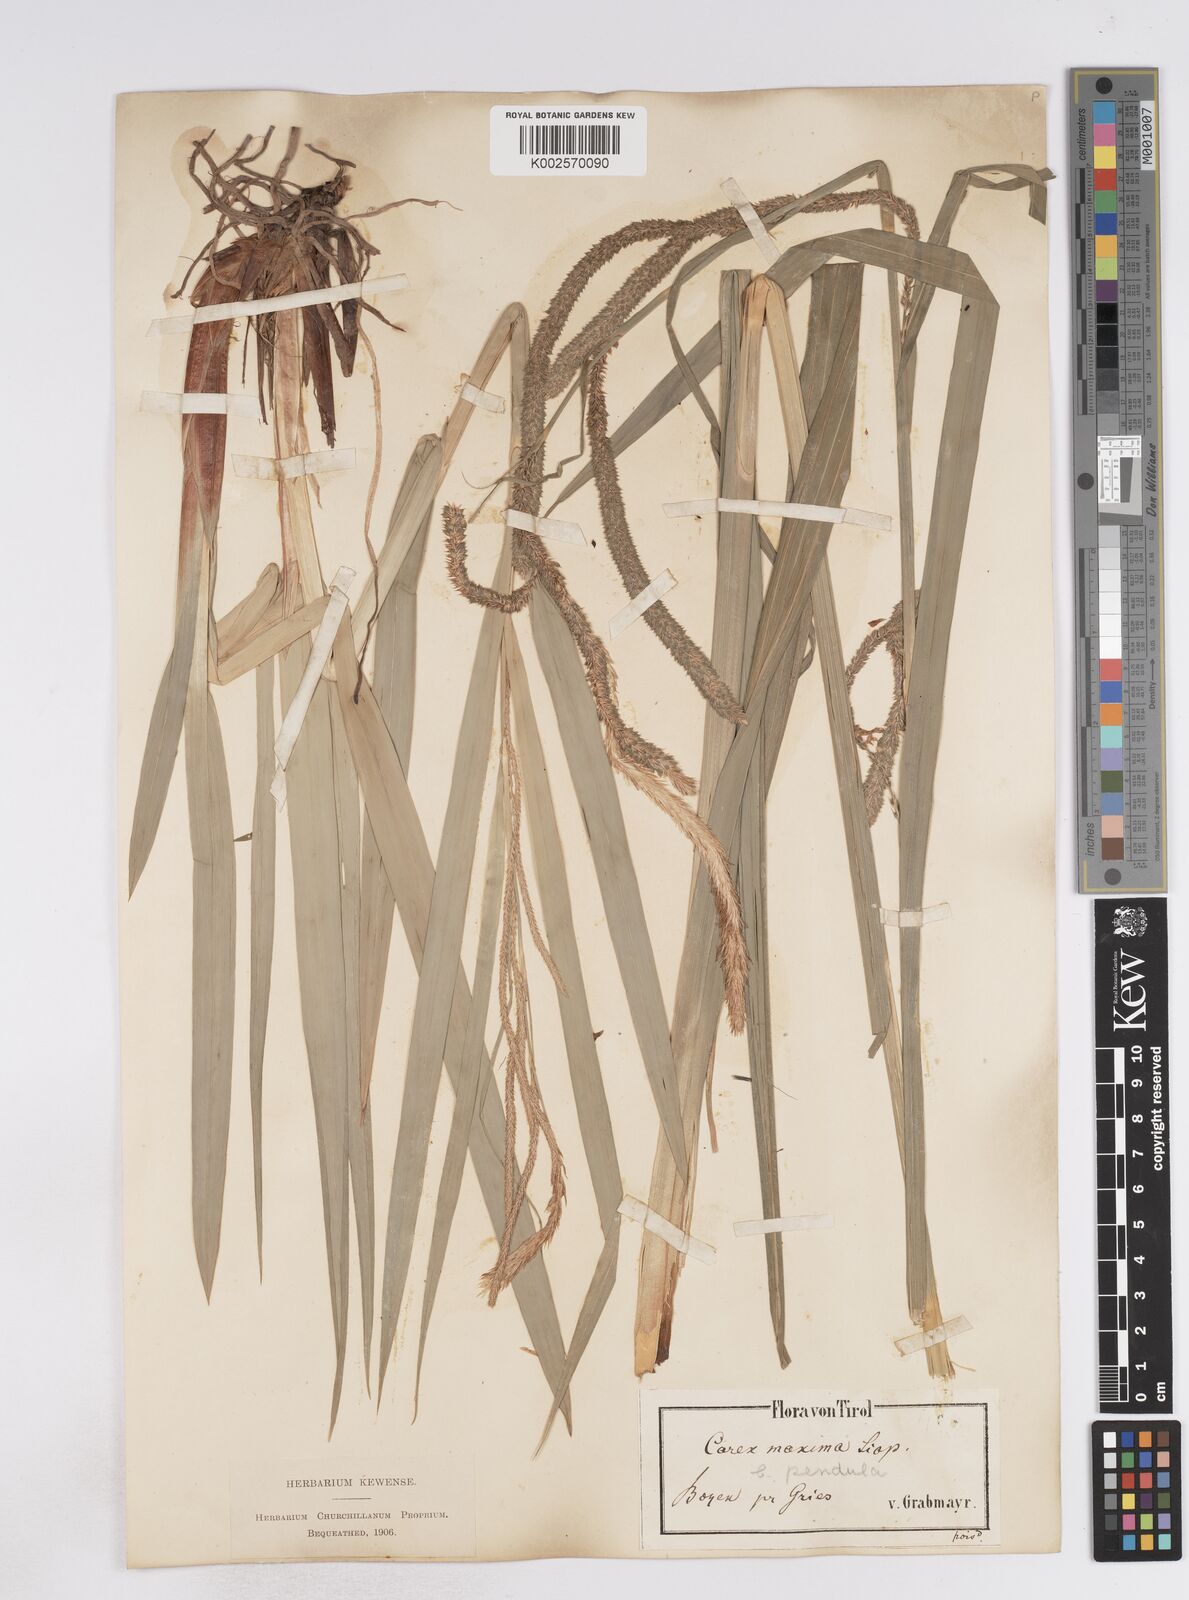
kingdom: Plantae
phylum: Tracheophyta
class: Liliopsida
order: Poales
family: Cyperaceae
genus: Carex
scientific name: Carex pendula
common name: Pendulous sedge
